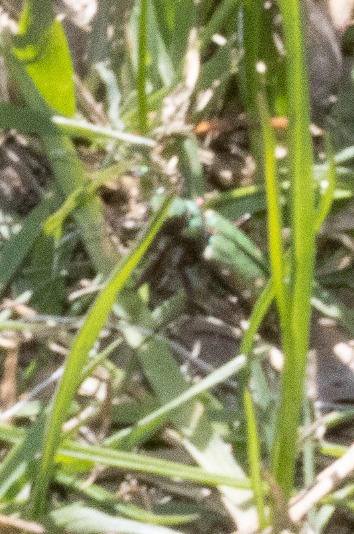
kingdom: Animalia
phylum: Arthropoda
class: Insecta
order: Coleoptera
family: Carabidae
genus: Cicindela
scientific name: Cicindela campestris
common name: Grøn sandspringer
